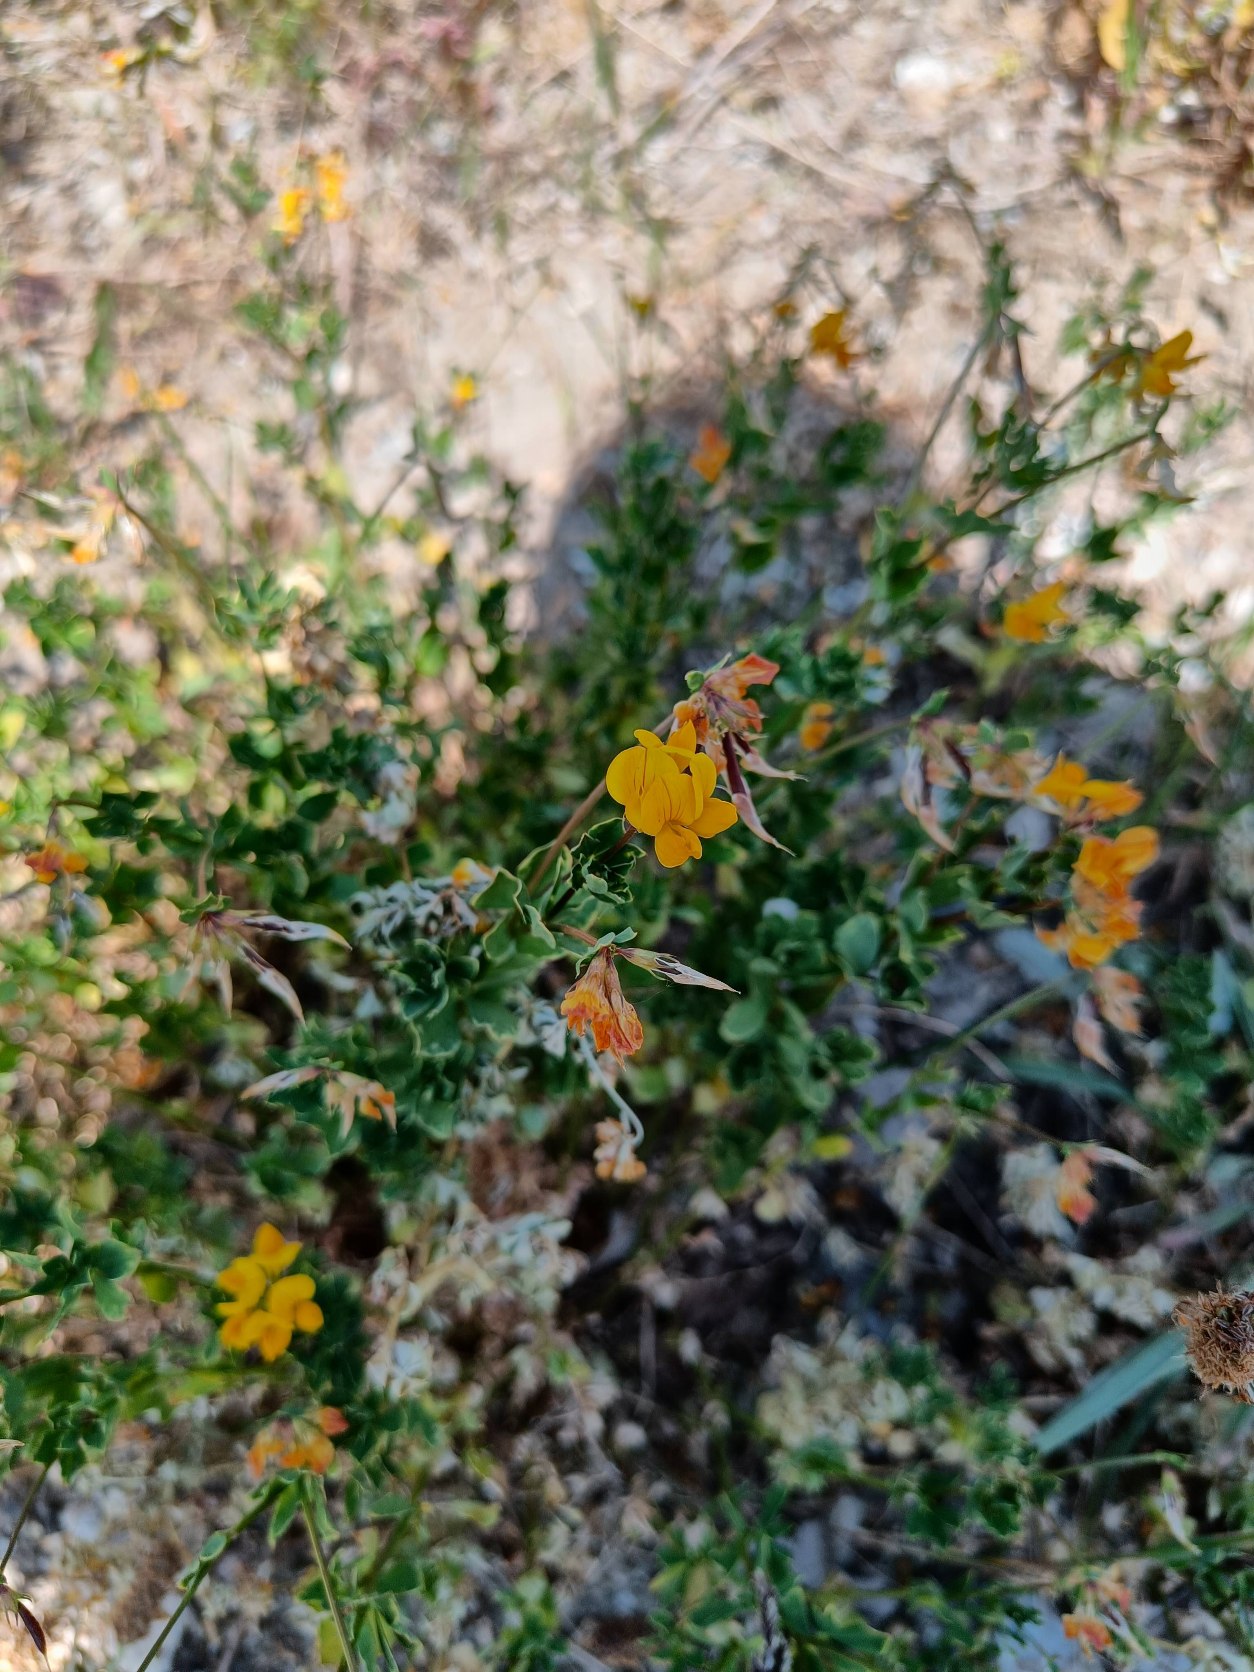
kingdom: Plantae
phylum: Tracheophyta
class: Magnoliopsida
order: Fabales
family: Fabaceae
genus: Lotus
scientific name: Lotus corniculatus
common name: Almindelig kællingetand
